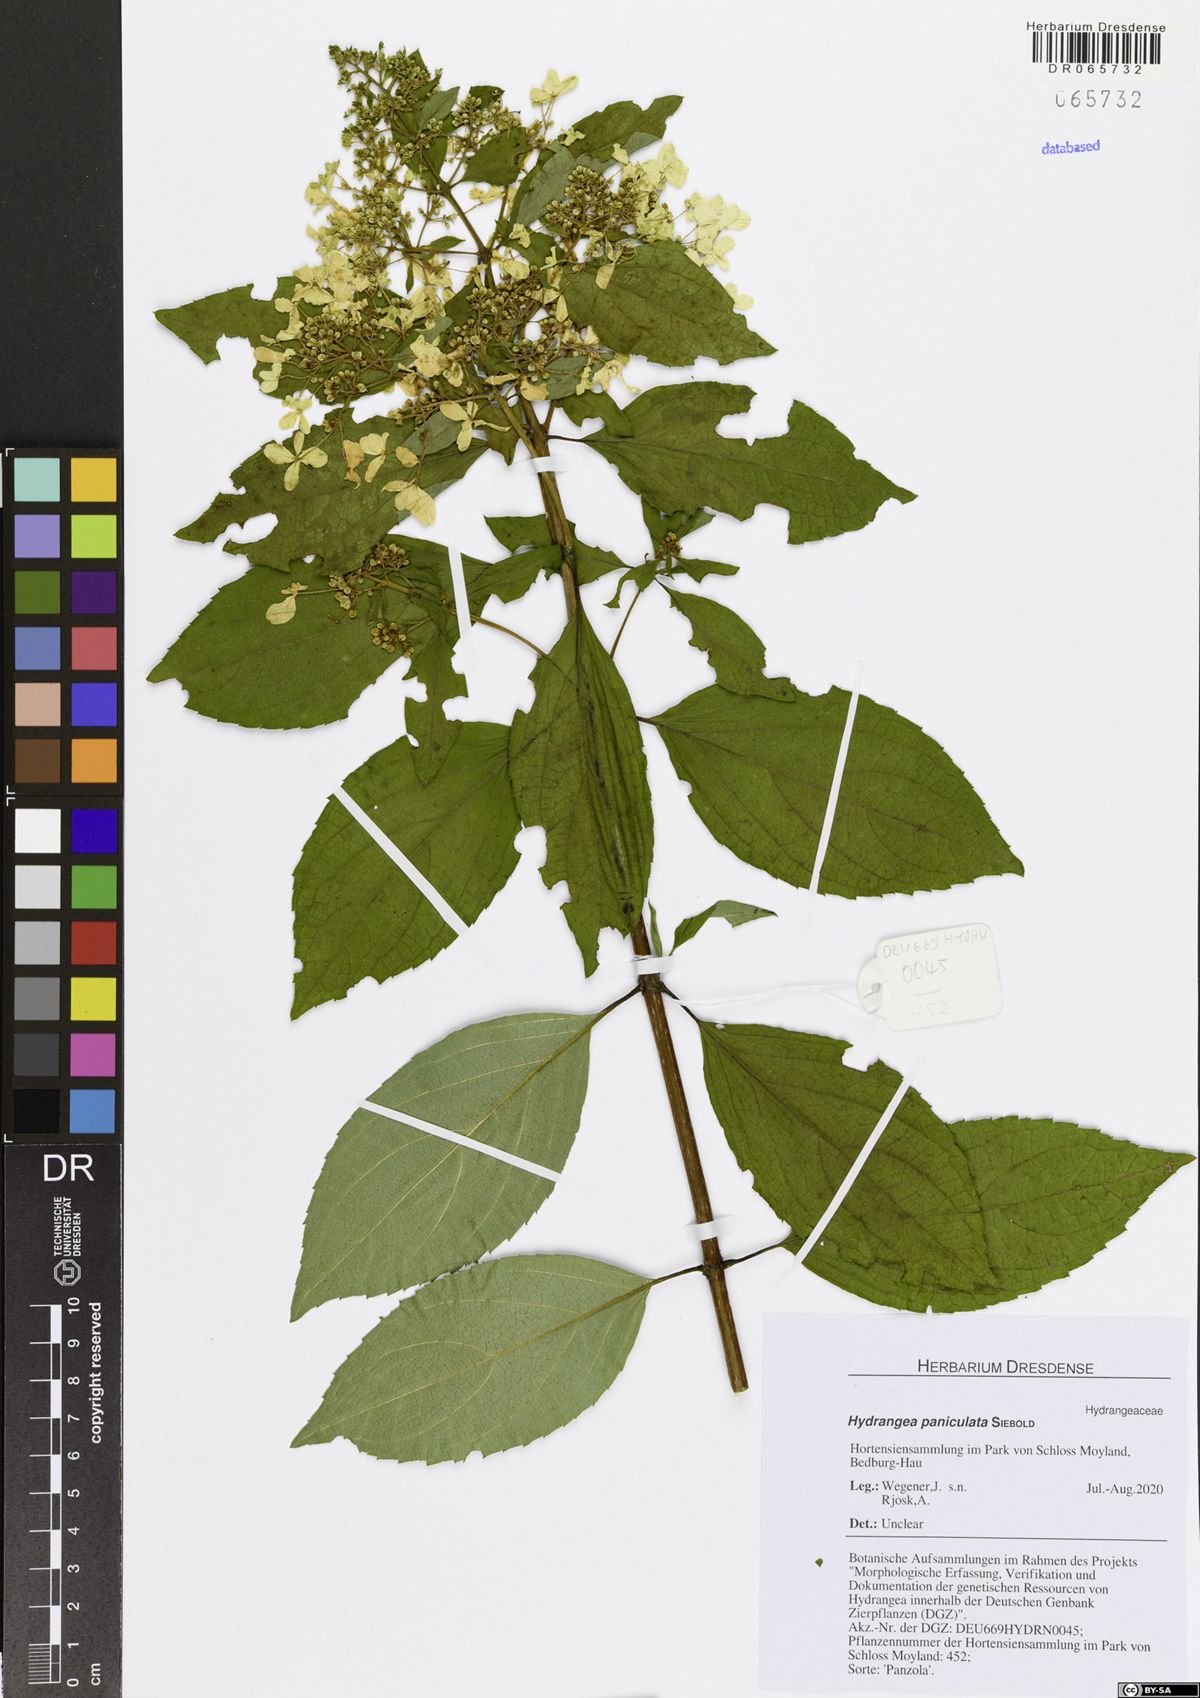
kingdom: Plantae
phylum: Tracheophyta
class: Magnoliopsida
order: Cornales
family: Hydrangeaceae
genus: Hydrangea
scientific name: Hydrangea paniculata
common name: Panicled hydrangea
